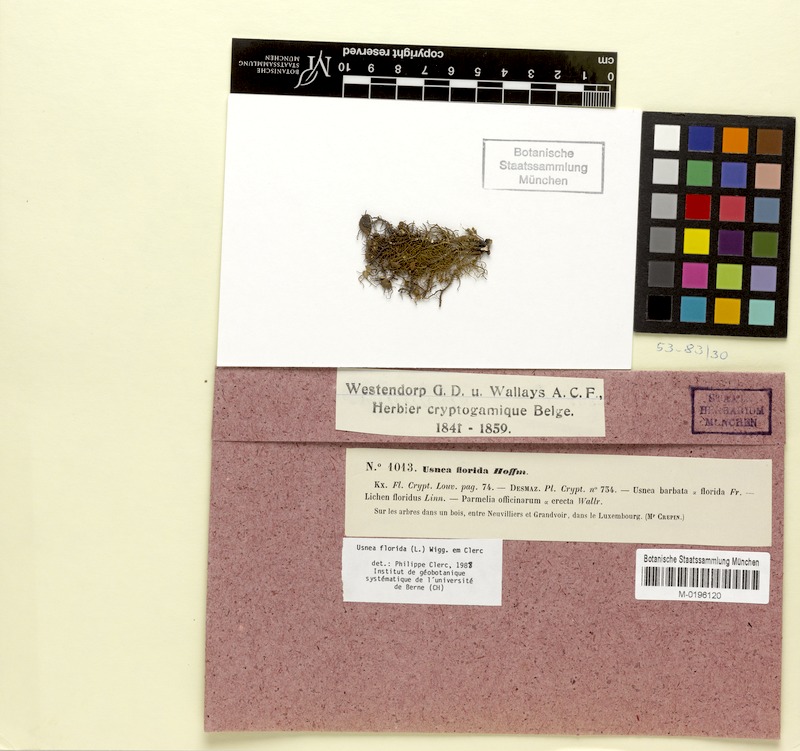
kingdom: Fungi
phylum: Ascomycota
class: Lecanoromycetes
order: Lecanorales
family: Parmeliaceae
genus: Usnea
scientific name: Usnea florida
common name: Witches' whiskers lichen
